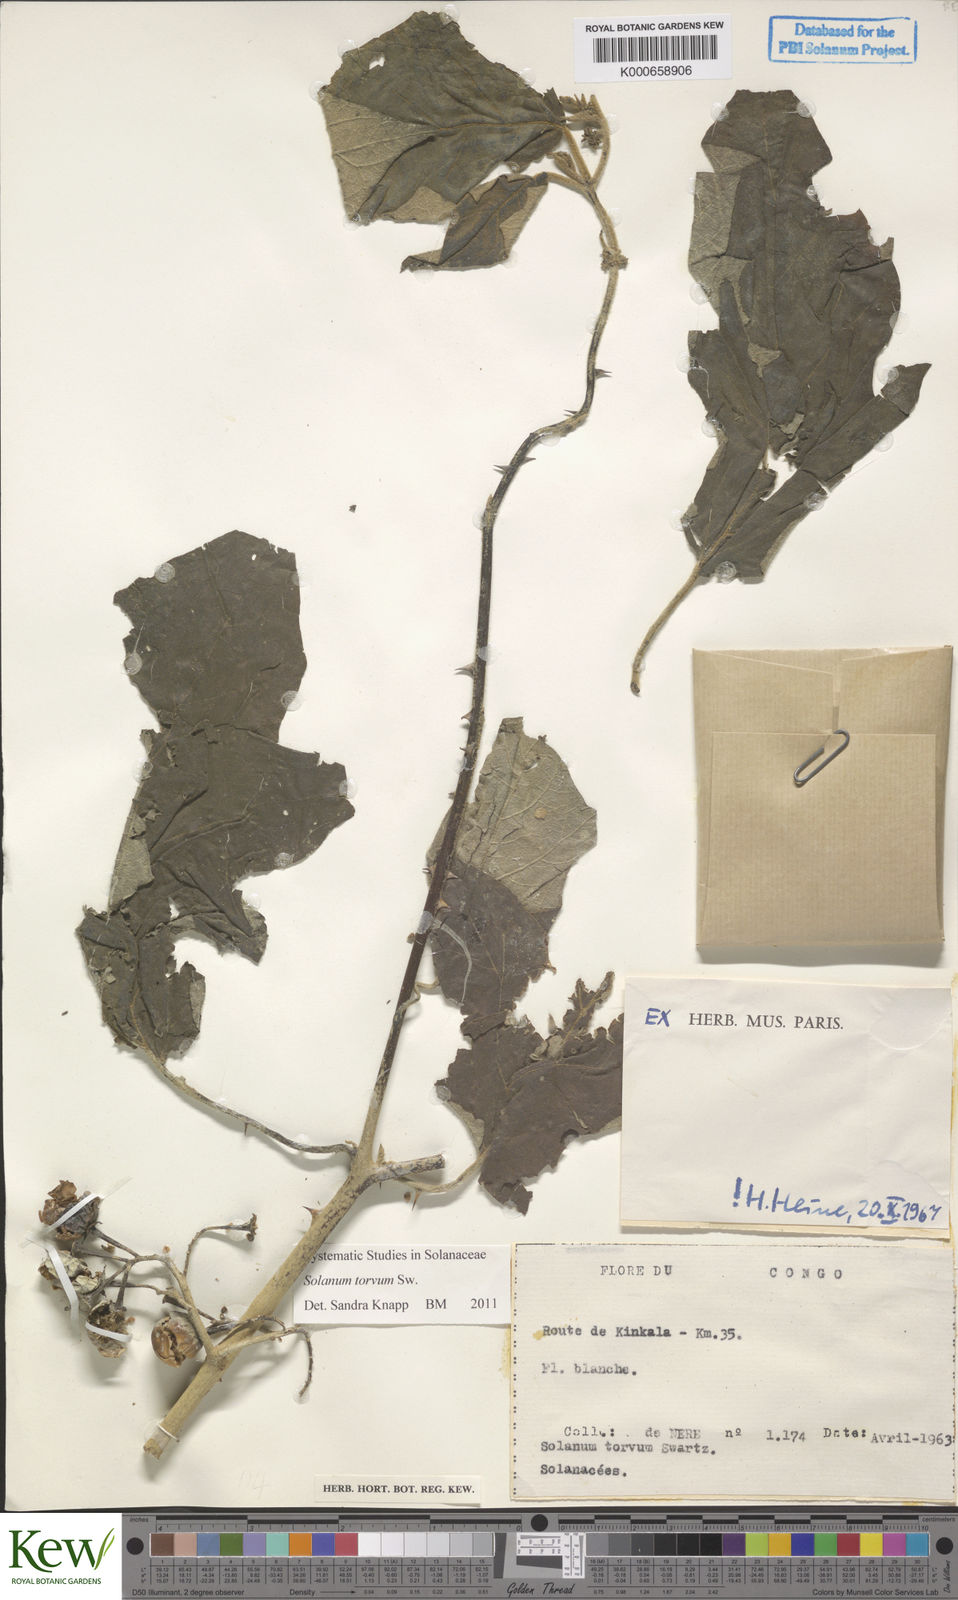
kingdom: Plantae
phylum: Tracheophyta
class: Magnoliopsida
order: Solanales
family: Solanaceae
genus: Solanum
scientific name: Solanum torvum
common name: Turkey berry
